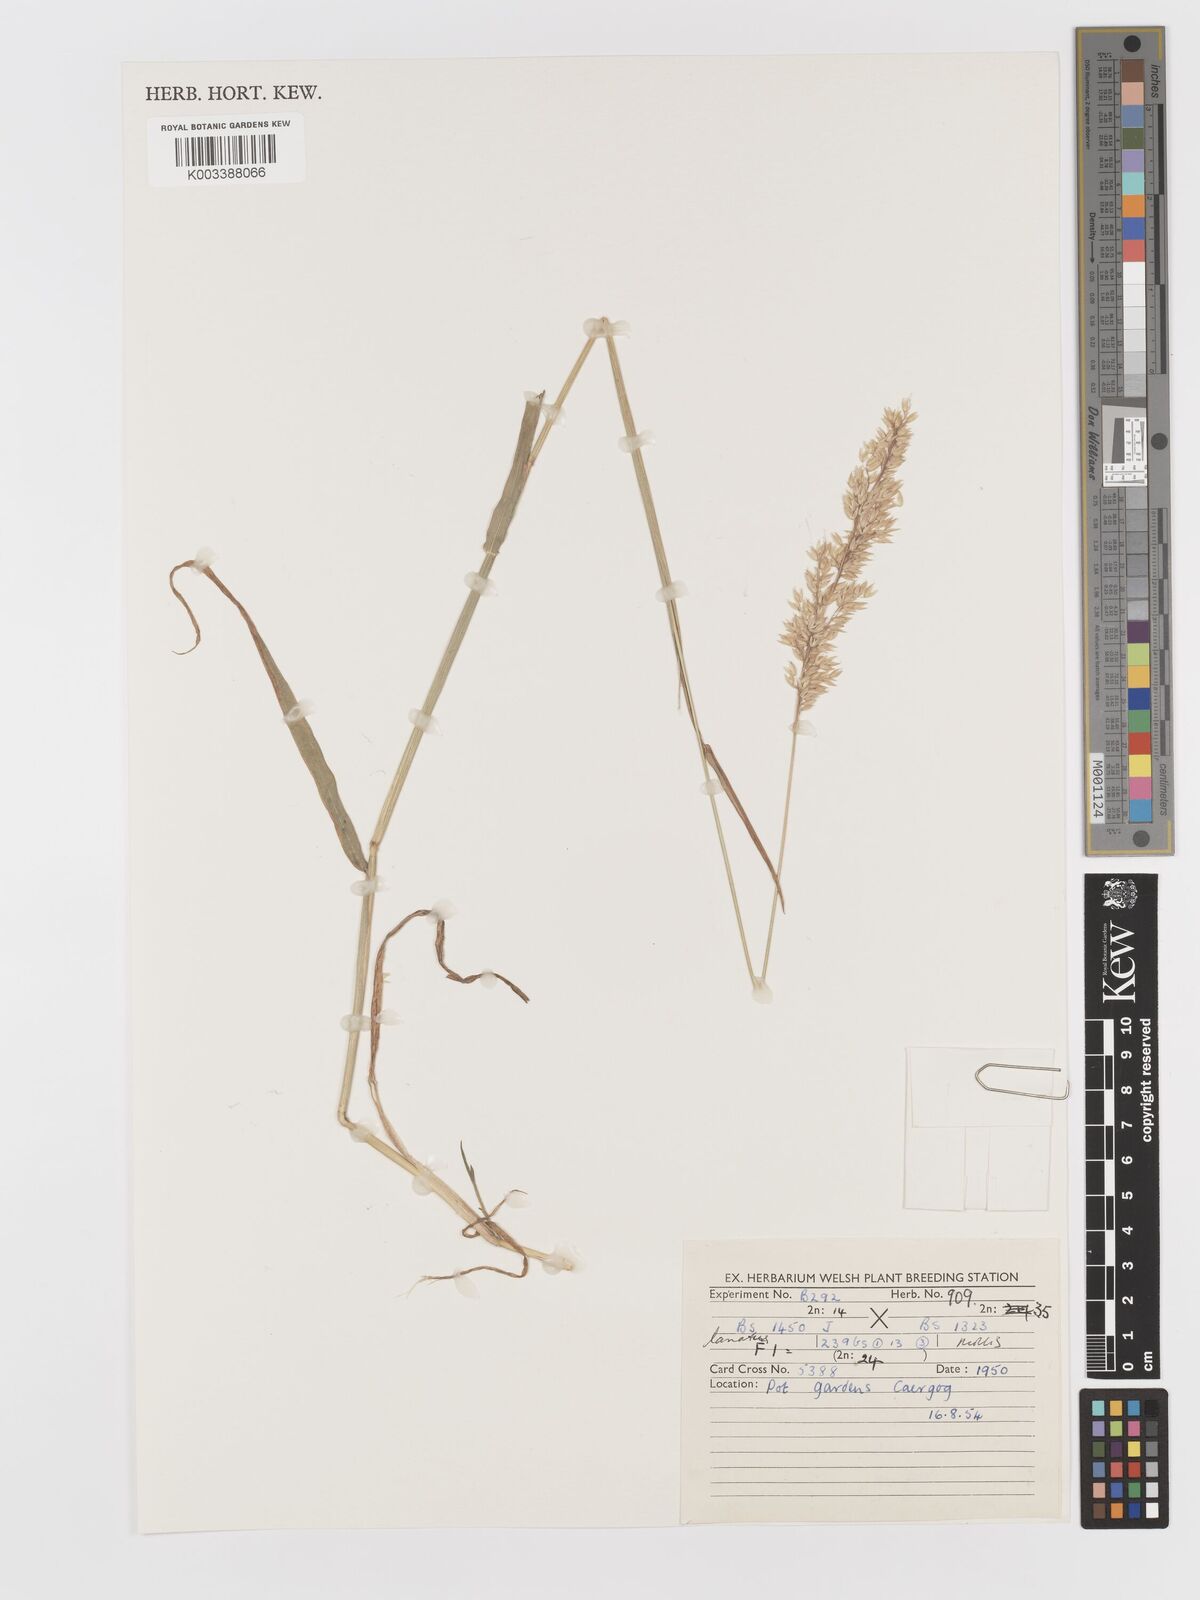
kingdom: Plantae
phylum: Tracheophyta
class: Liliopsida
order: Poales
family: Poaceae
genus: Holcus
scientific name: Holcus lanatus
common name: Yorkshire-fog
